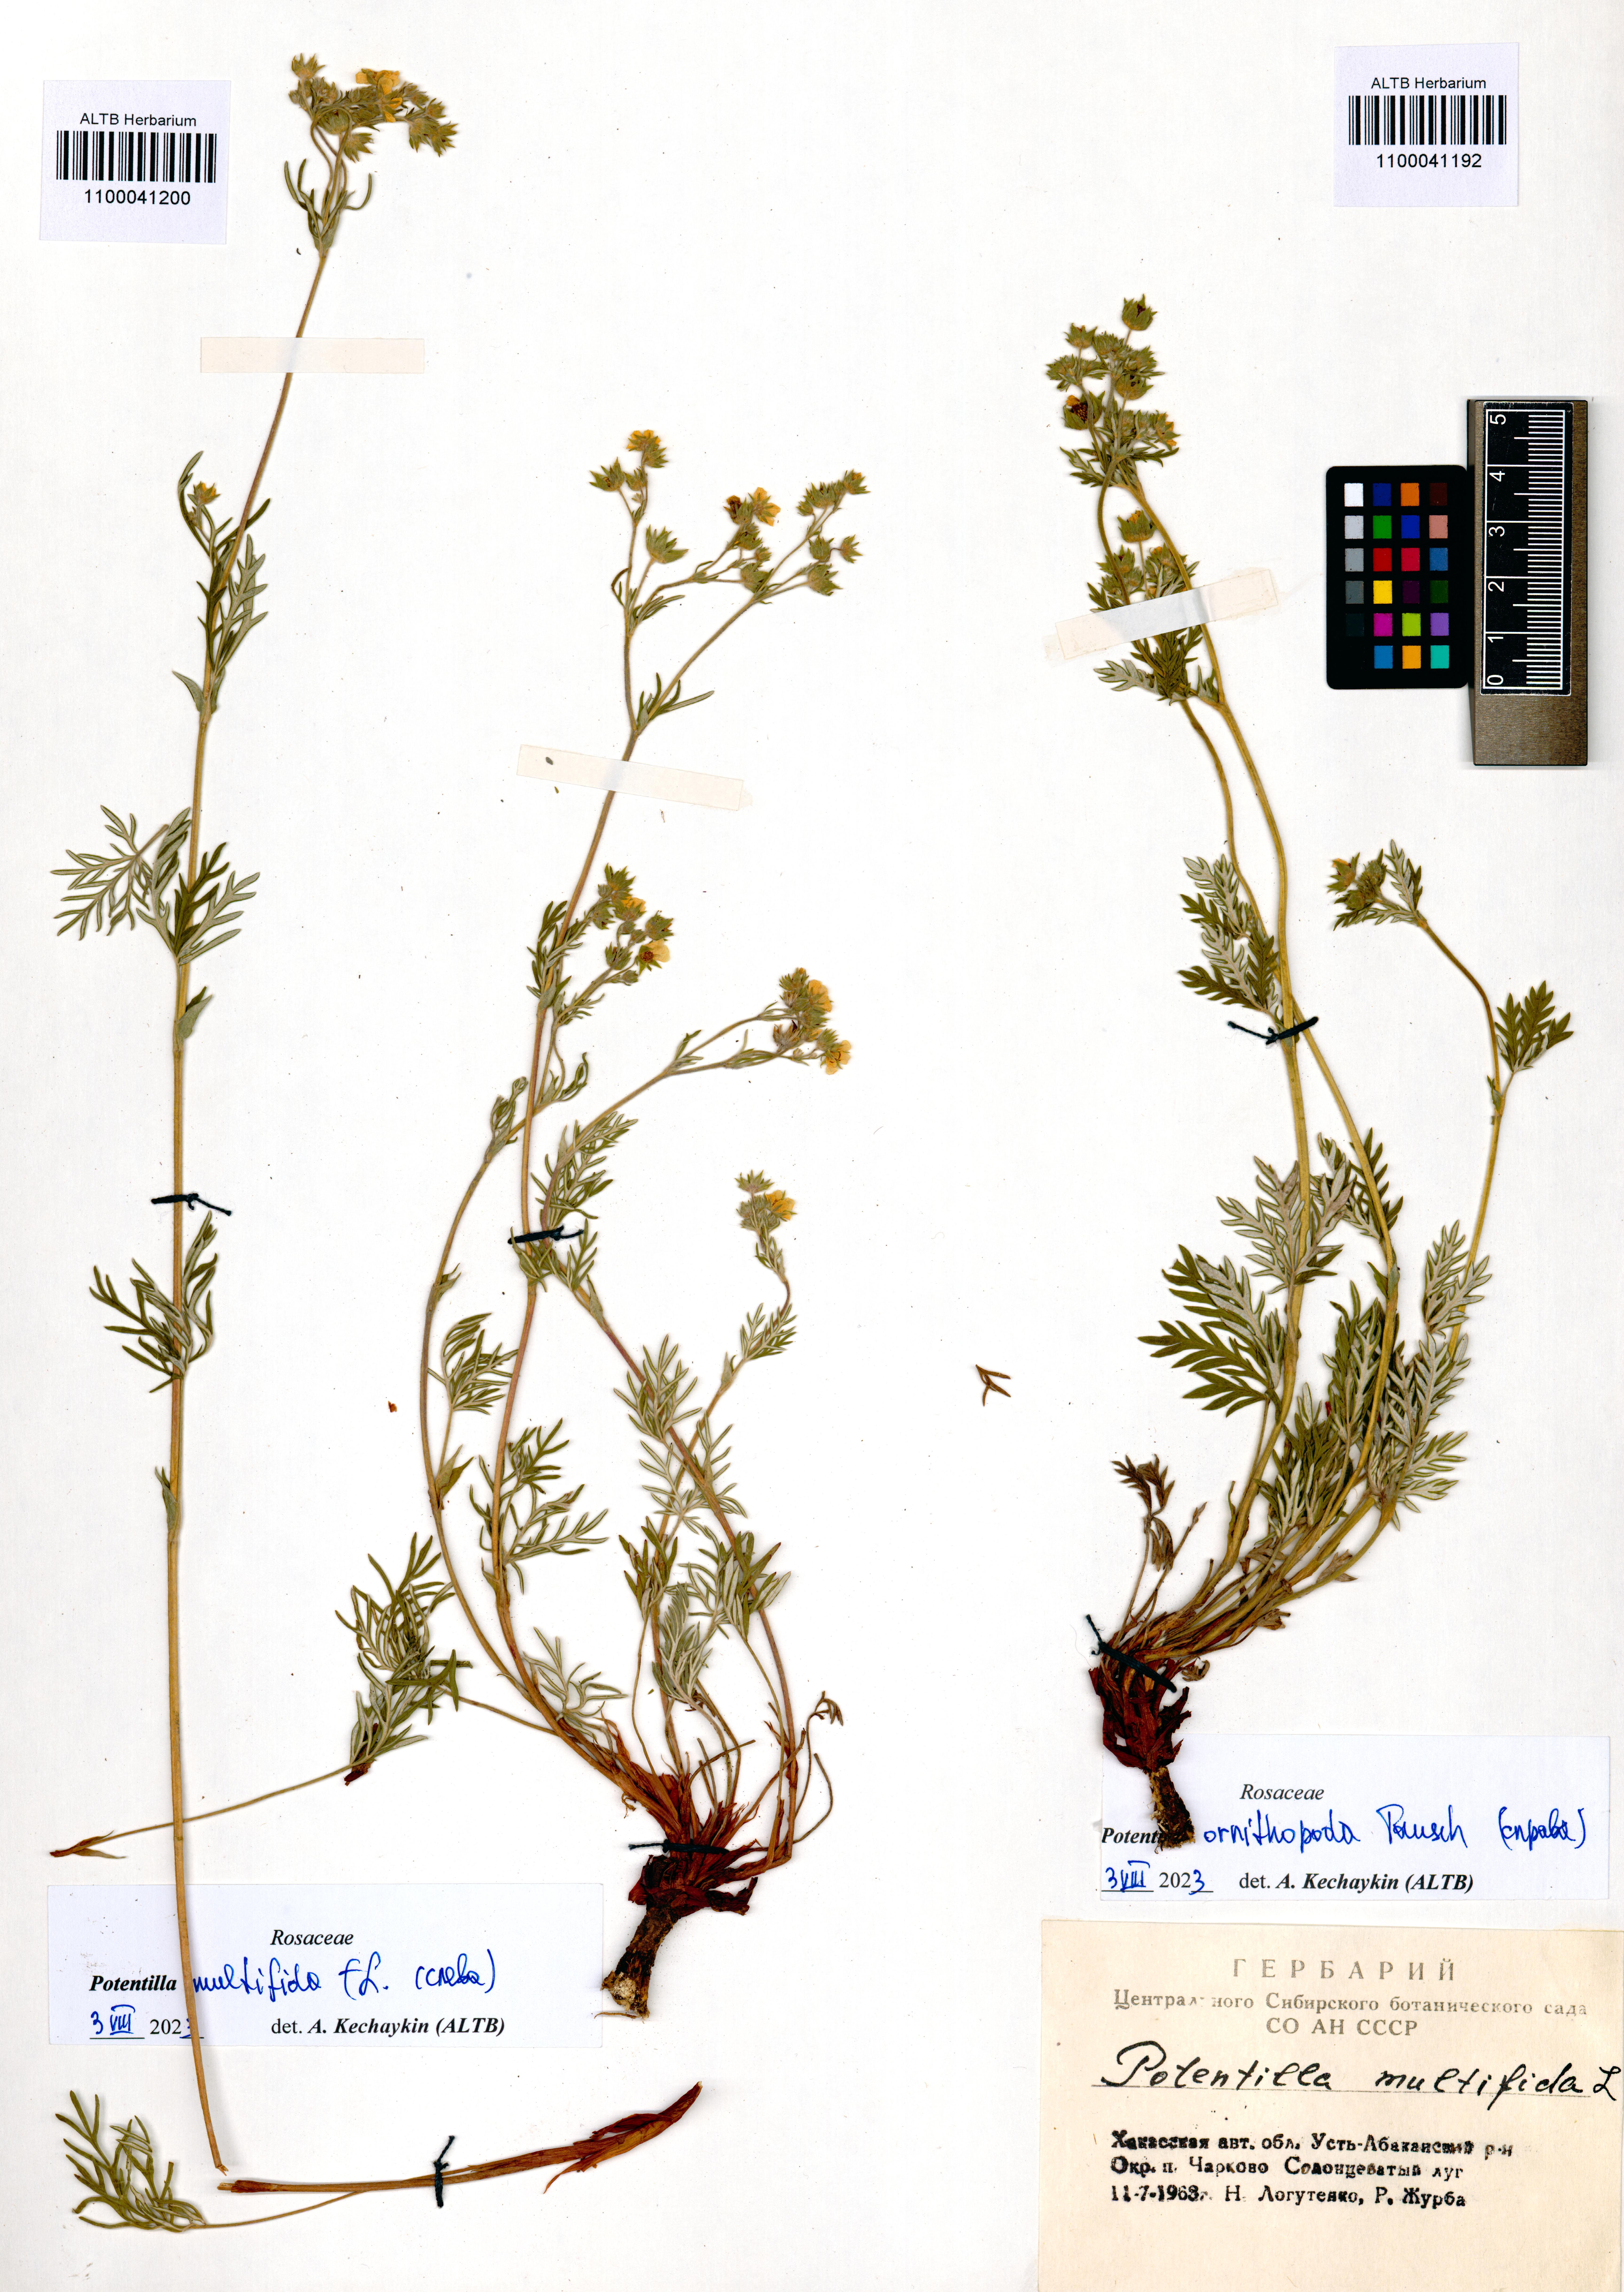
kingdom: Plantae
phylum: Tracheophyta
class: Magnoliopsida
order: Rosales
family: Rosaceae
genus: Potentilla
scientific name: Potentilla multifida
